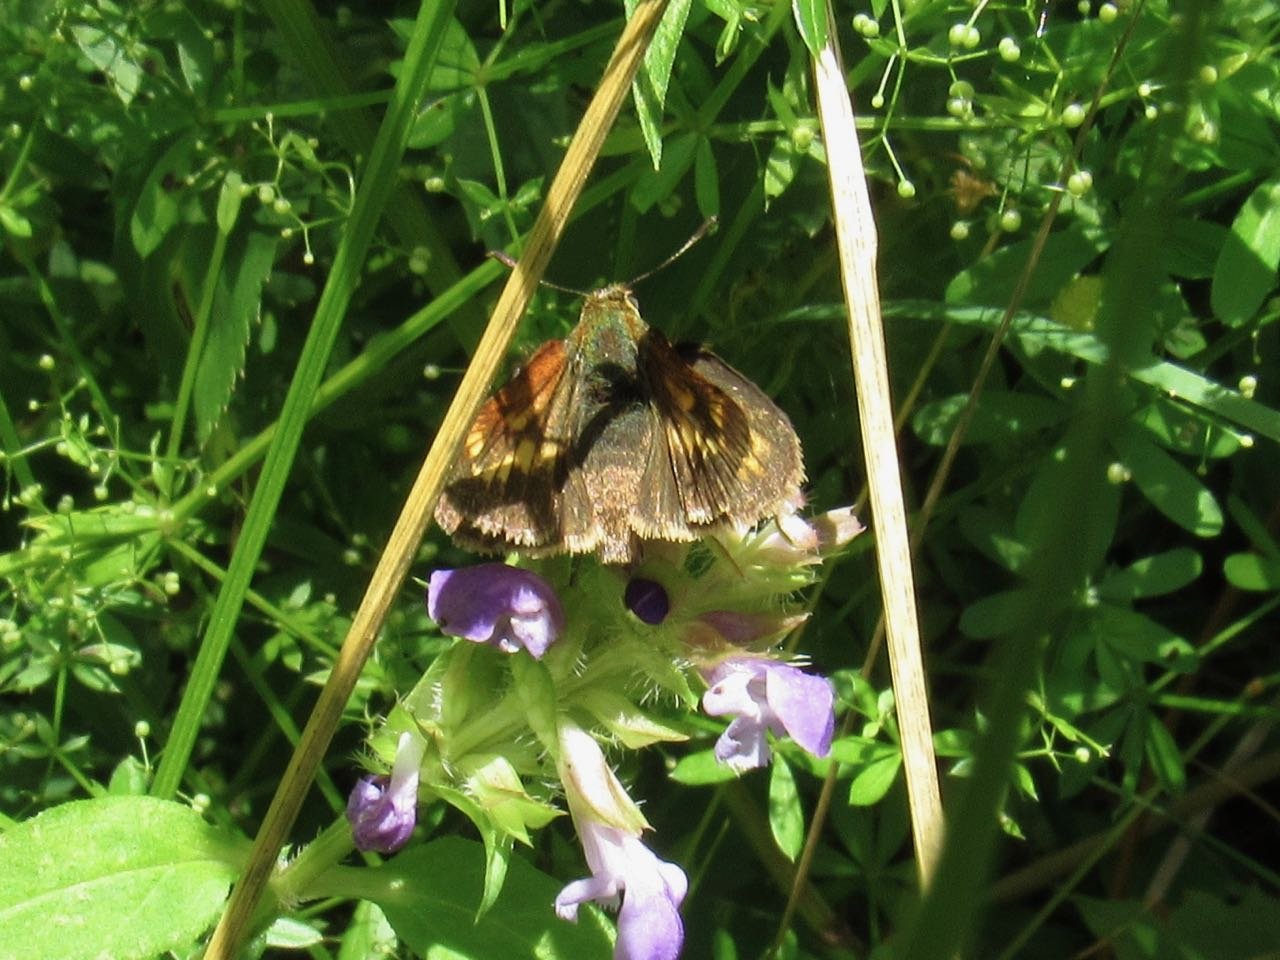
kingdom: Animalia
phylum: Arthropoda
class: Insecta
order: Lepidoptera
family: Hesperiidae
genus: Polites
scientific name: Polites
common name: Long Dash Skipper
